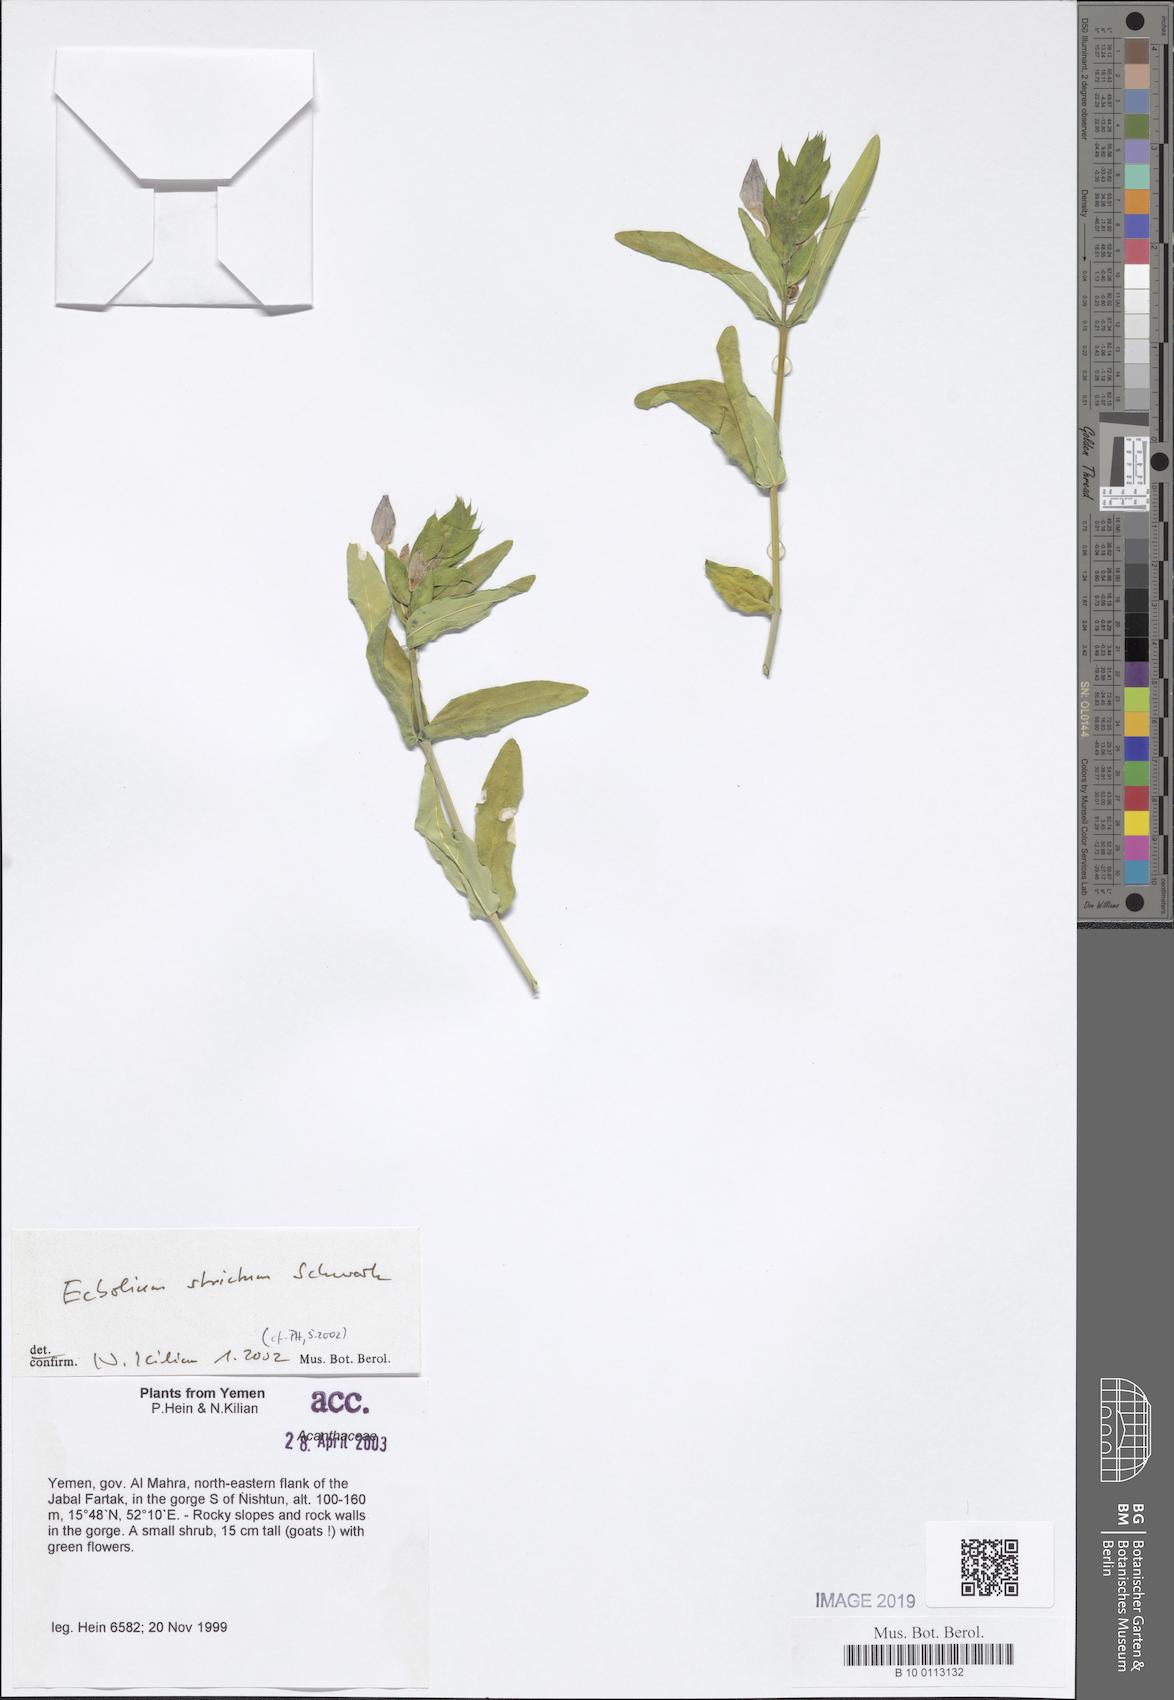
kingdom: Plantae
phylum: Tracheophyta
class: Magnoliopsida
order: Lamiales
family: Acanthaceae
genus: Ecbolium
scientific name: Ecbolium viride
